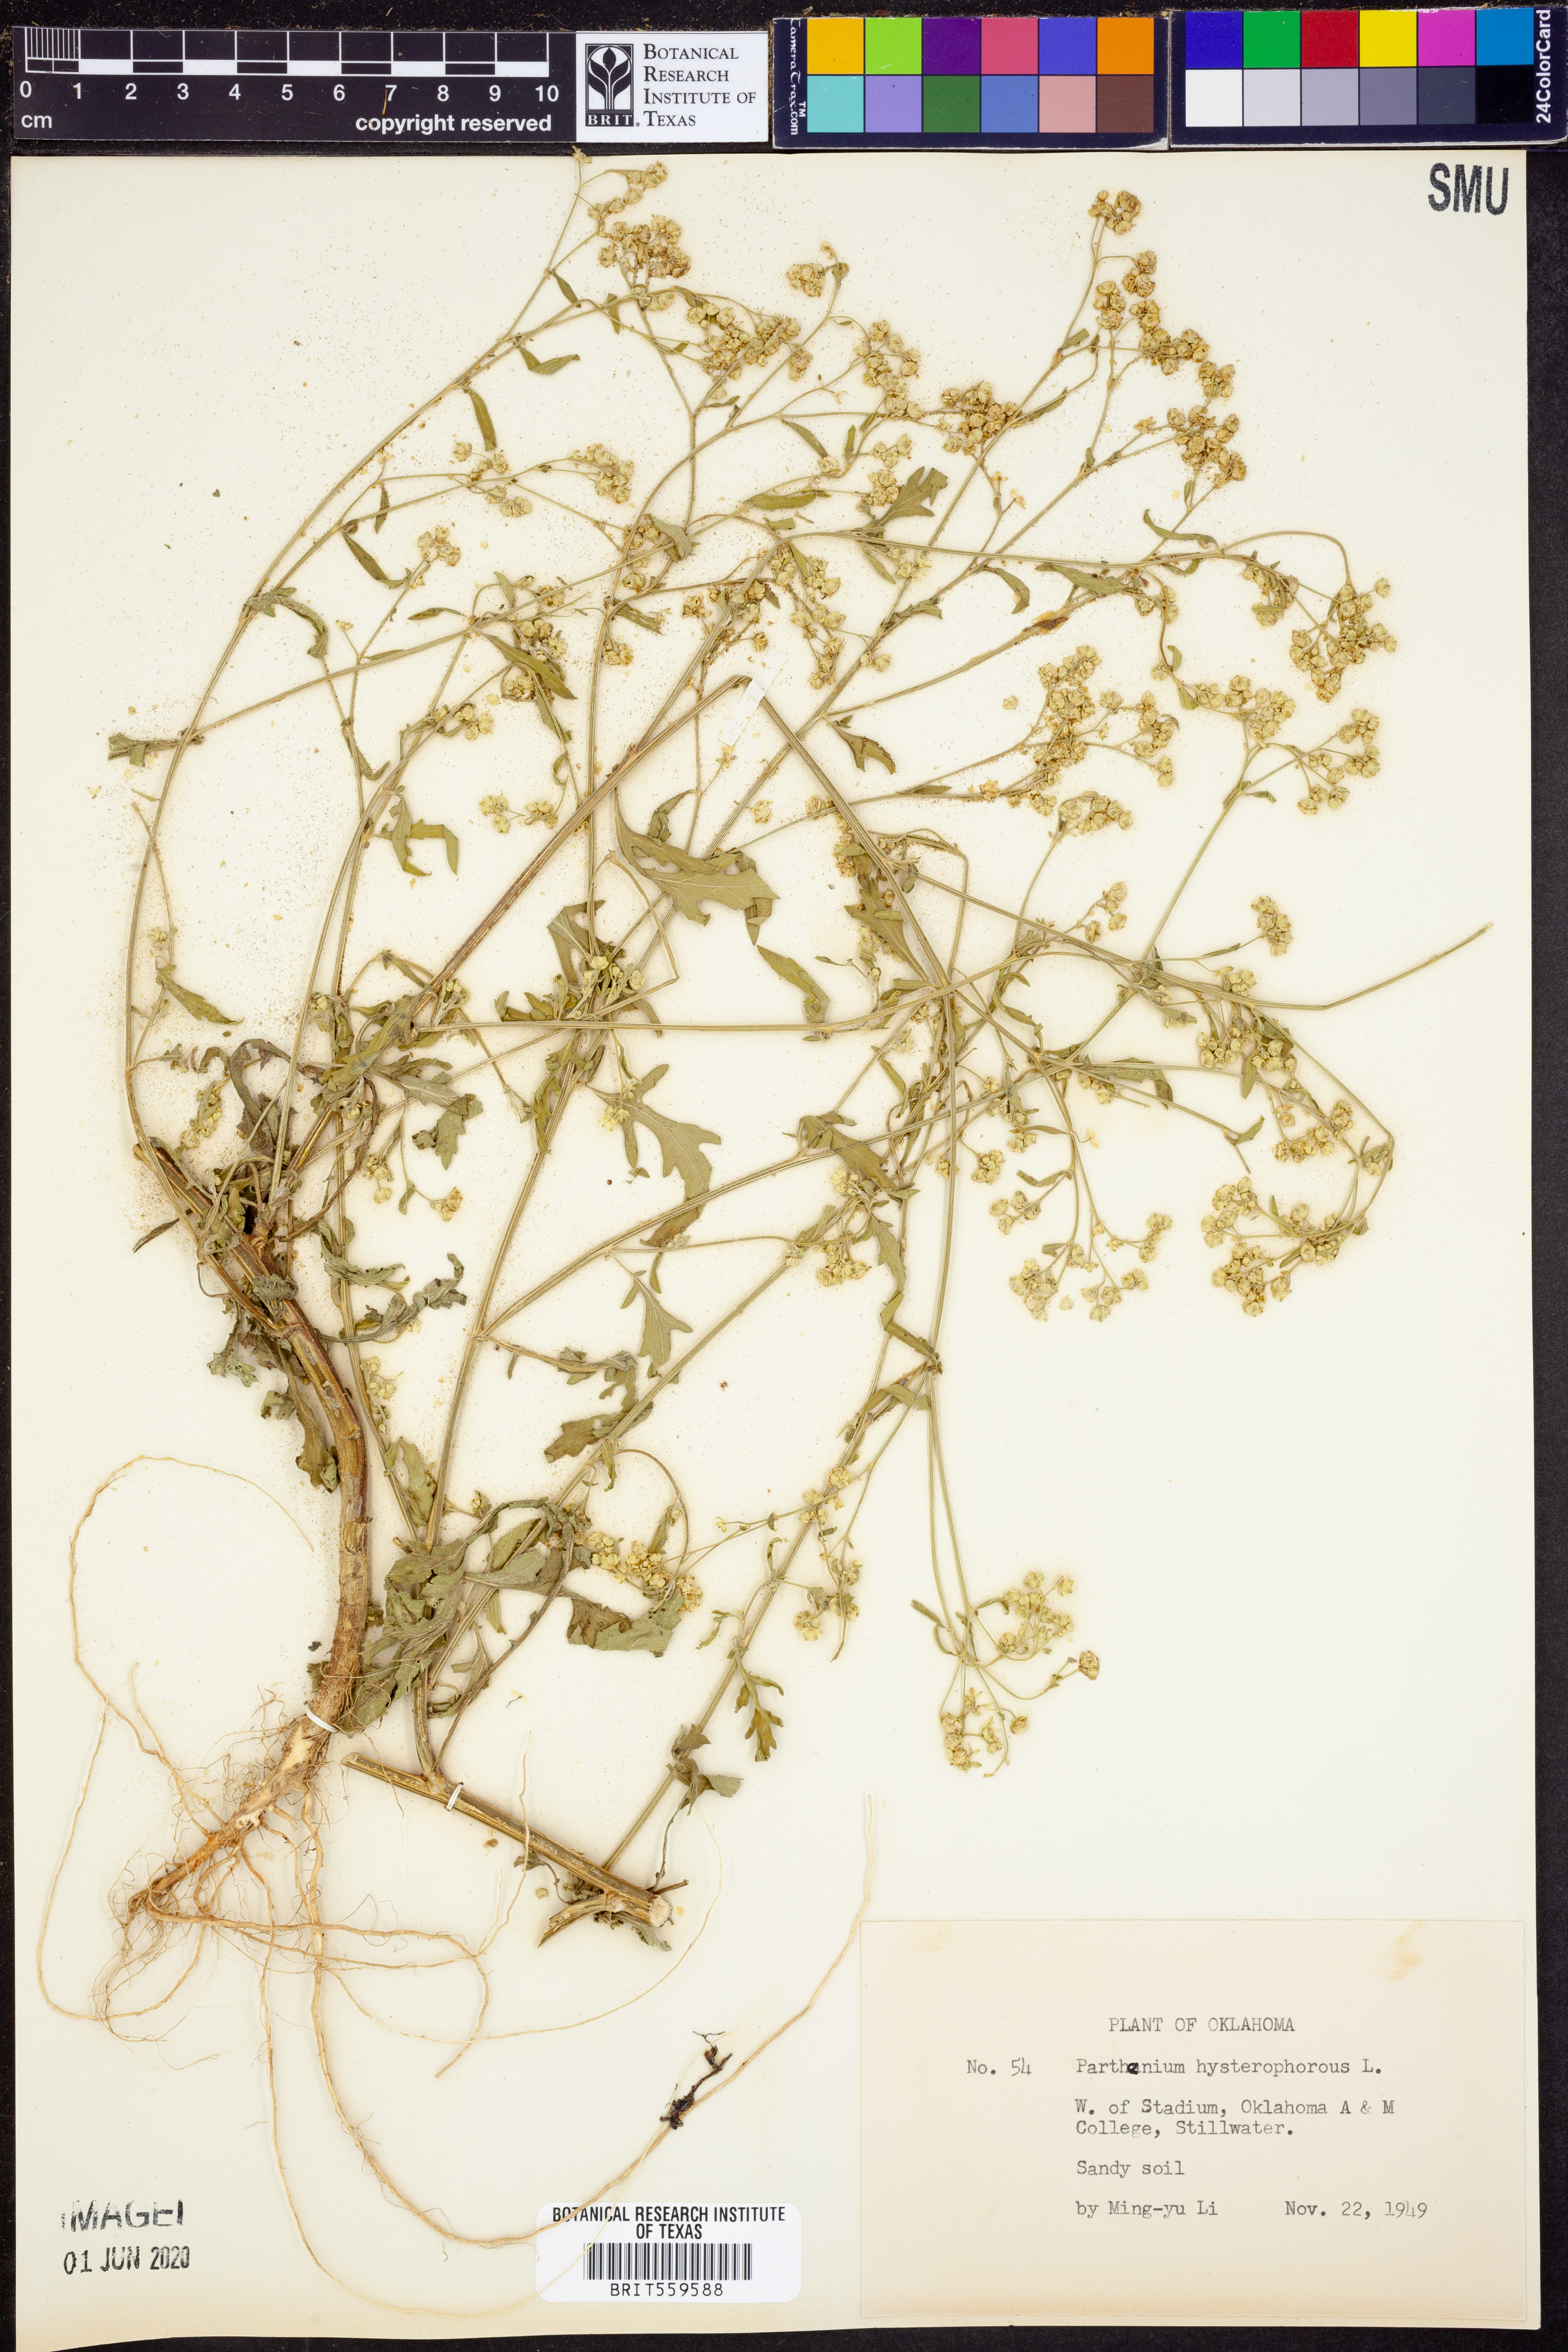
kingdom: Plantae
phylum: Tracheophyta
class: Magnoliopsida
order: Asterales
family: Asteraceae
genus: Parthenium
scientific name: Parthenium hysterophorus
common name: Santa maria feverfew
